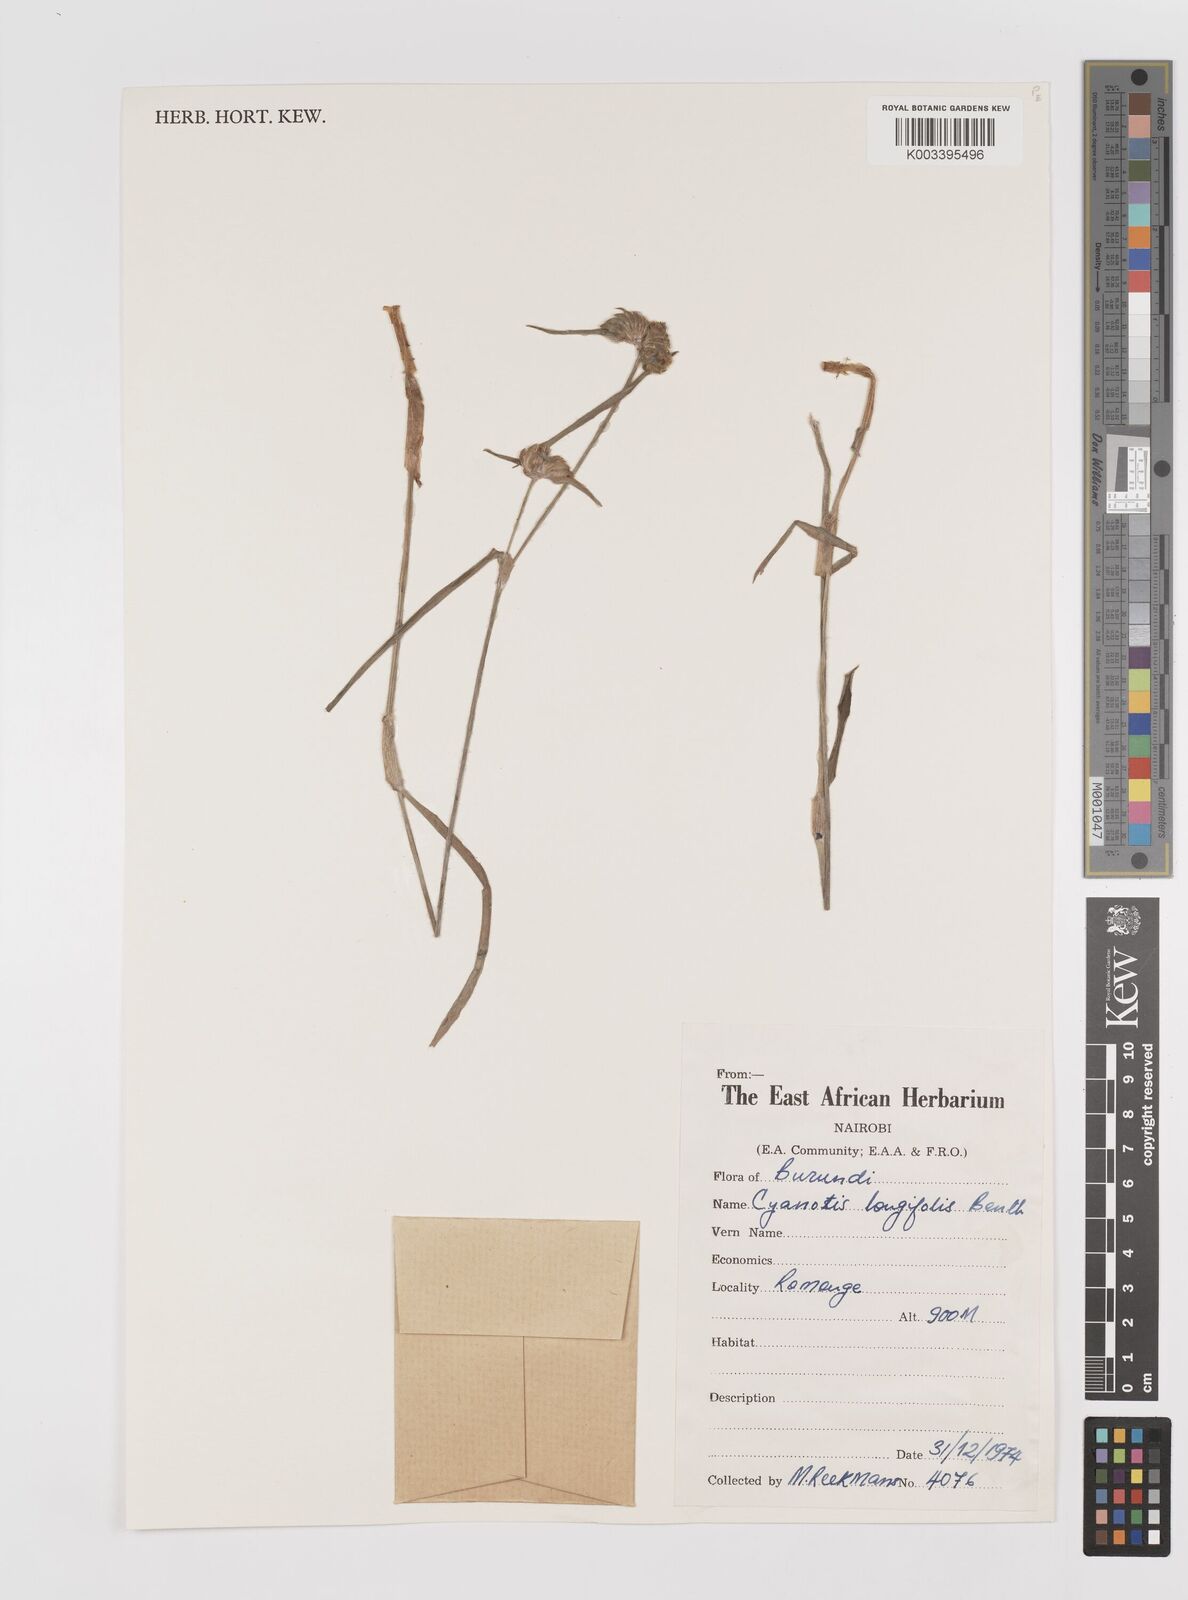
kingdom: Plantae
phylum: Tracheophyta
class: Liliopsida
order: Commelinales
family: Commelinaceae
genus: Cyanotis
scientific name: Cyanotis longifolia
